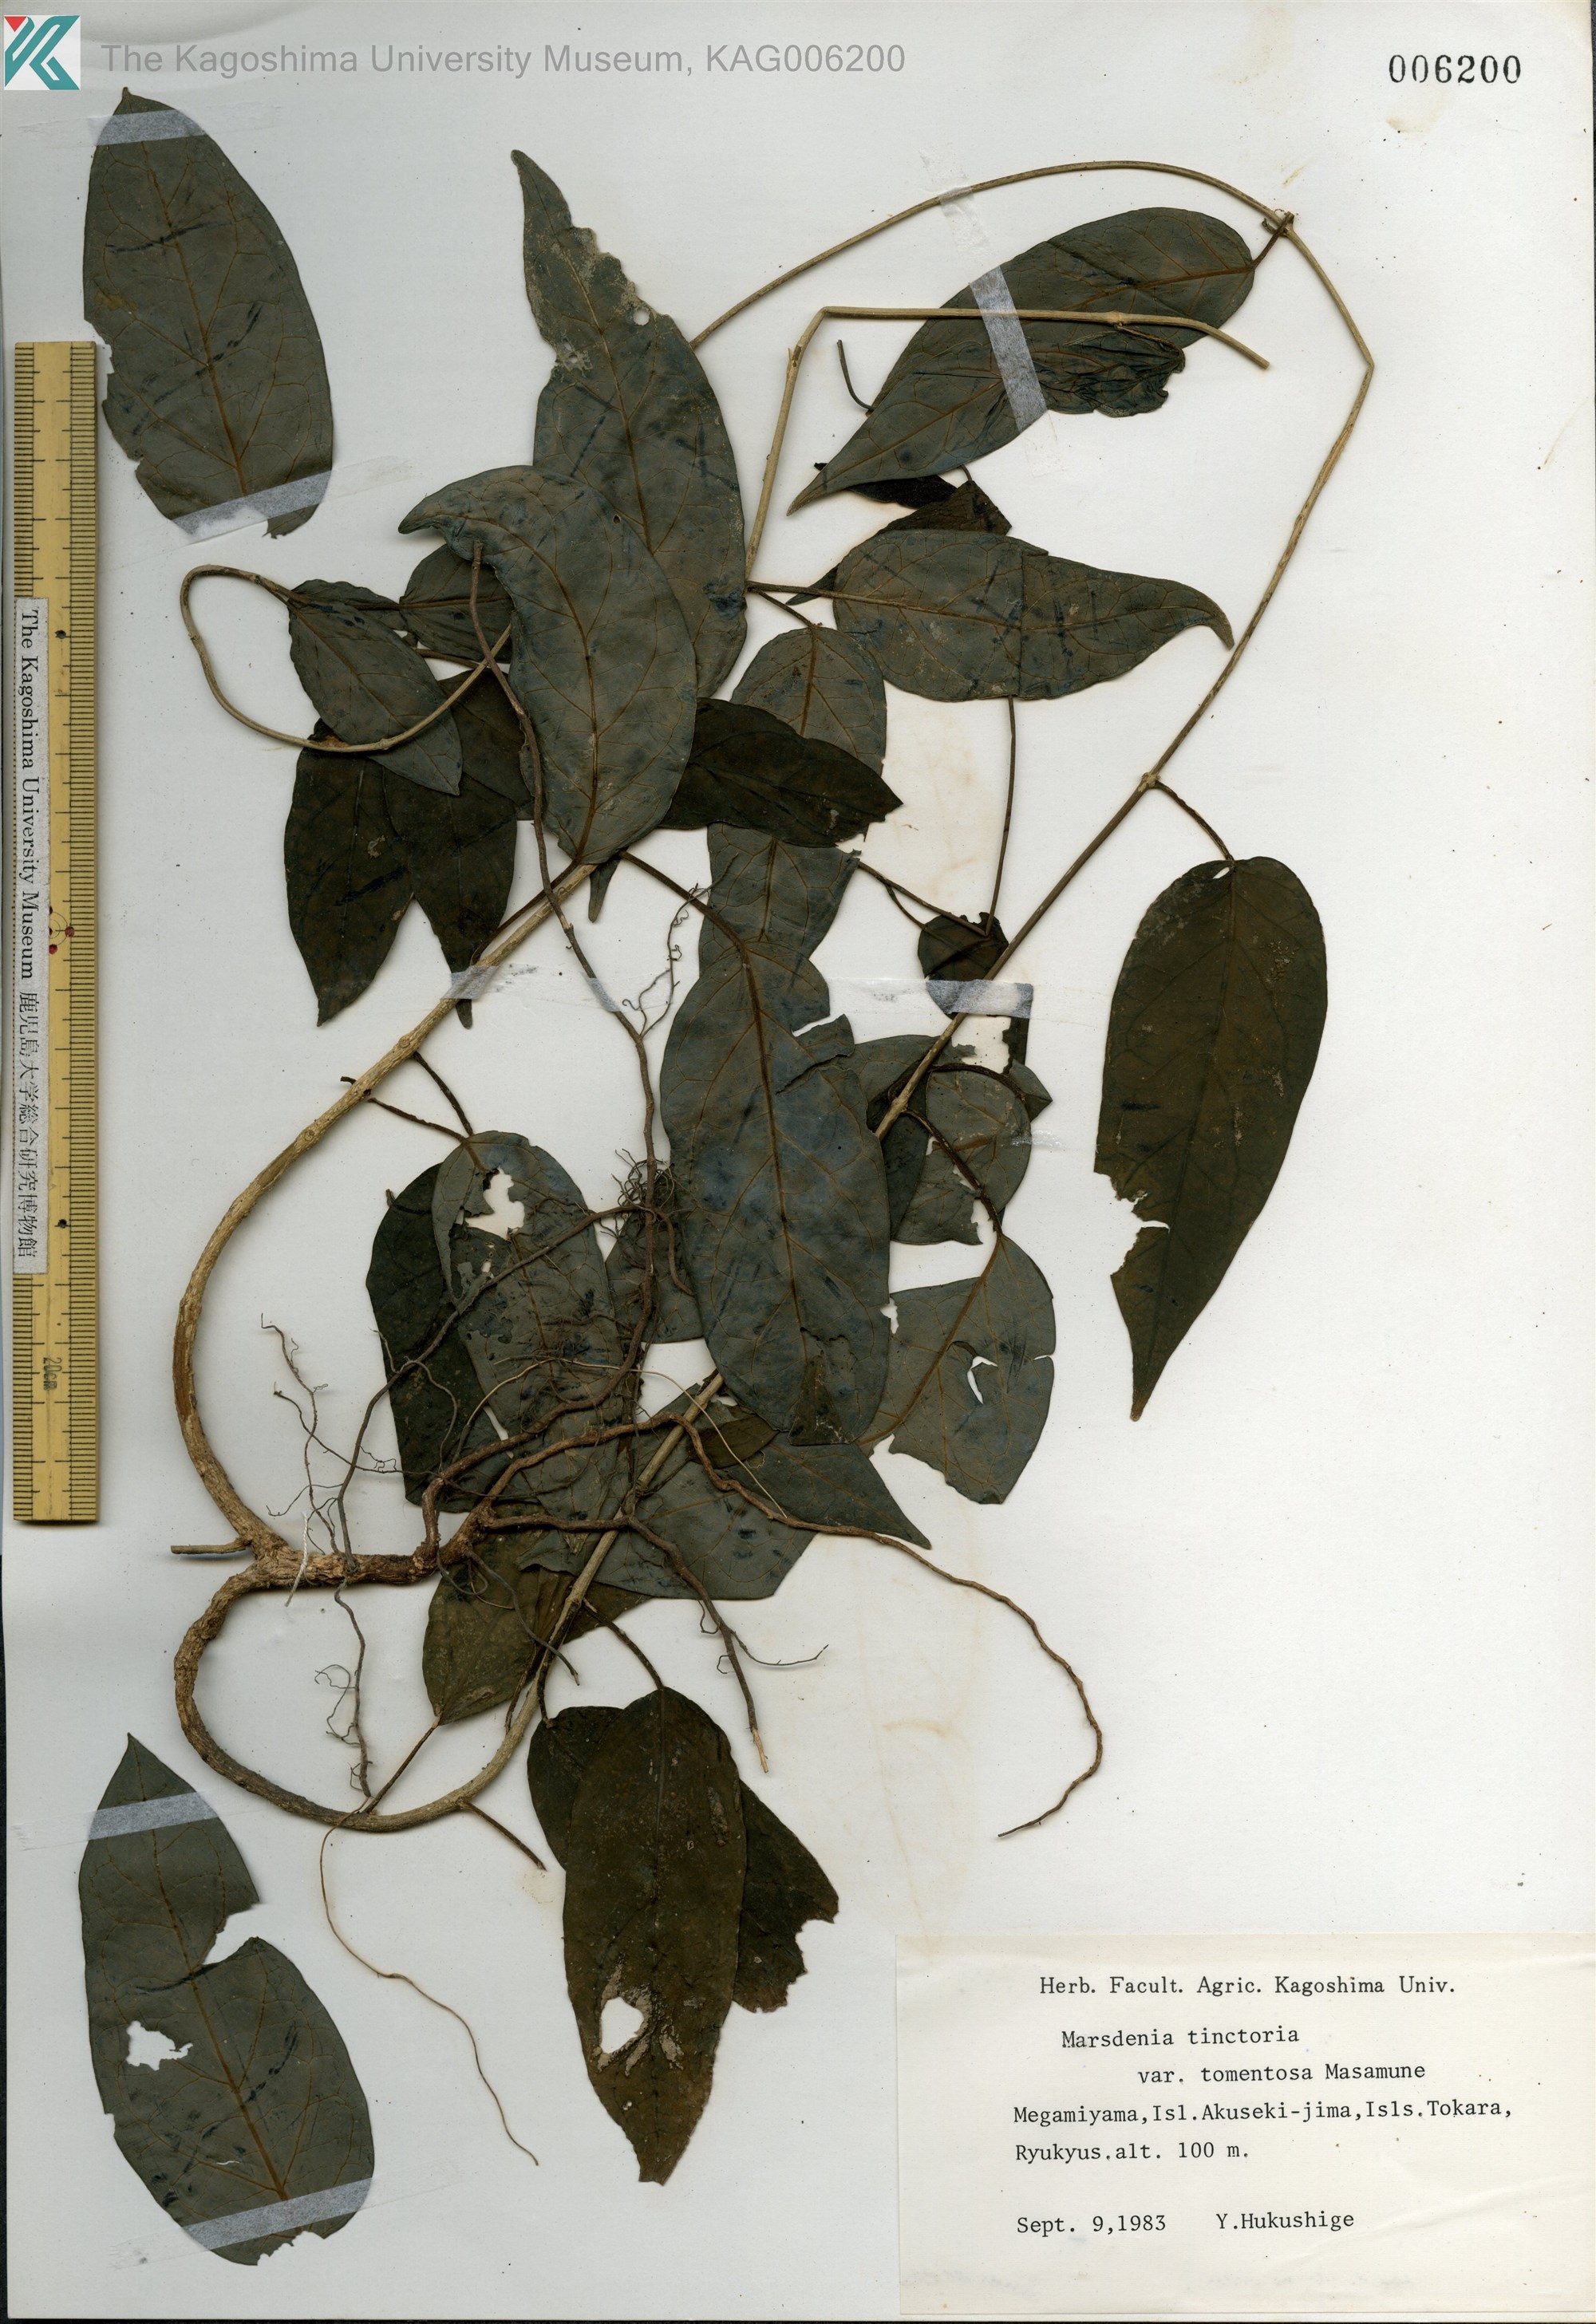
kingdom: Plantae
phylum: Tracheophyta
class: Magnoliopsida
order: Gentianales
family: Apocynaceae
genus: Marsdenia
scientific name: Marsdenia tinctoria
